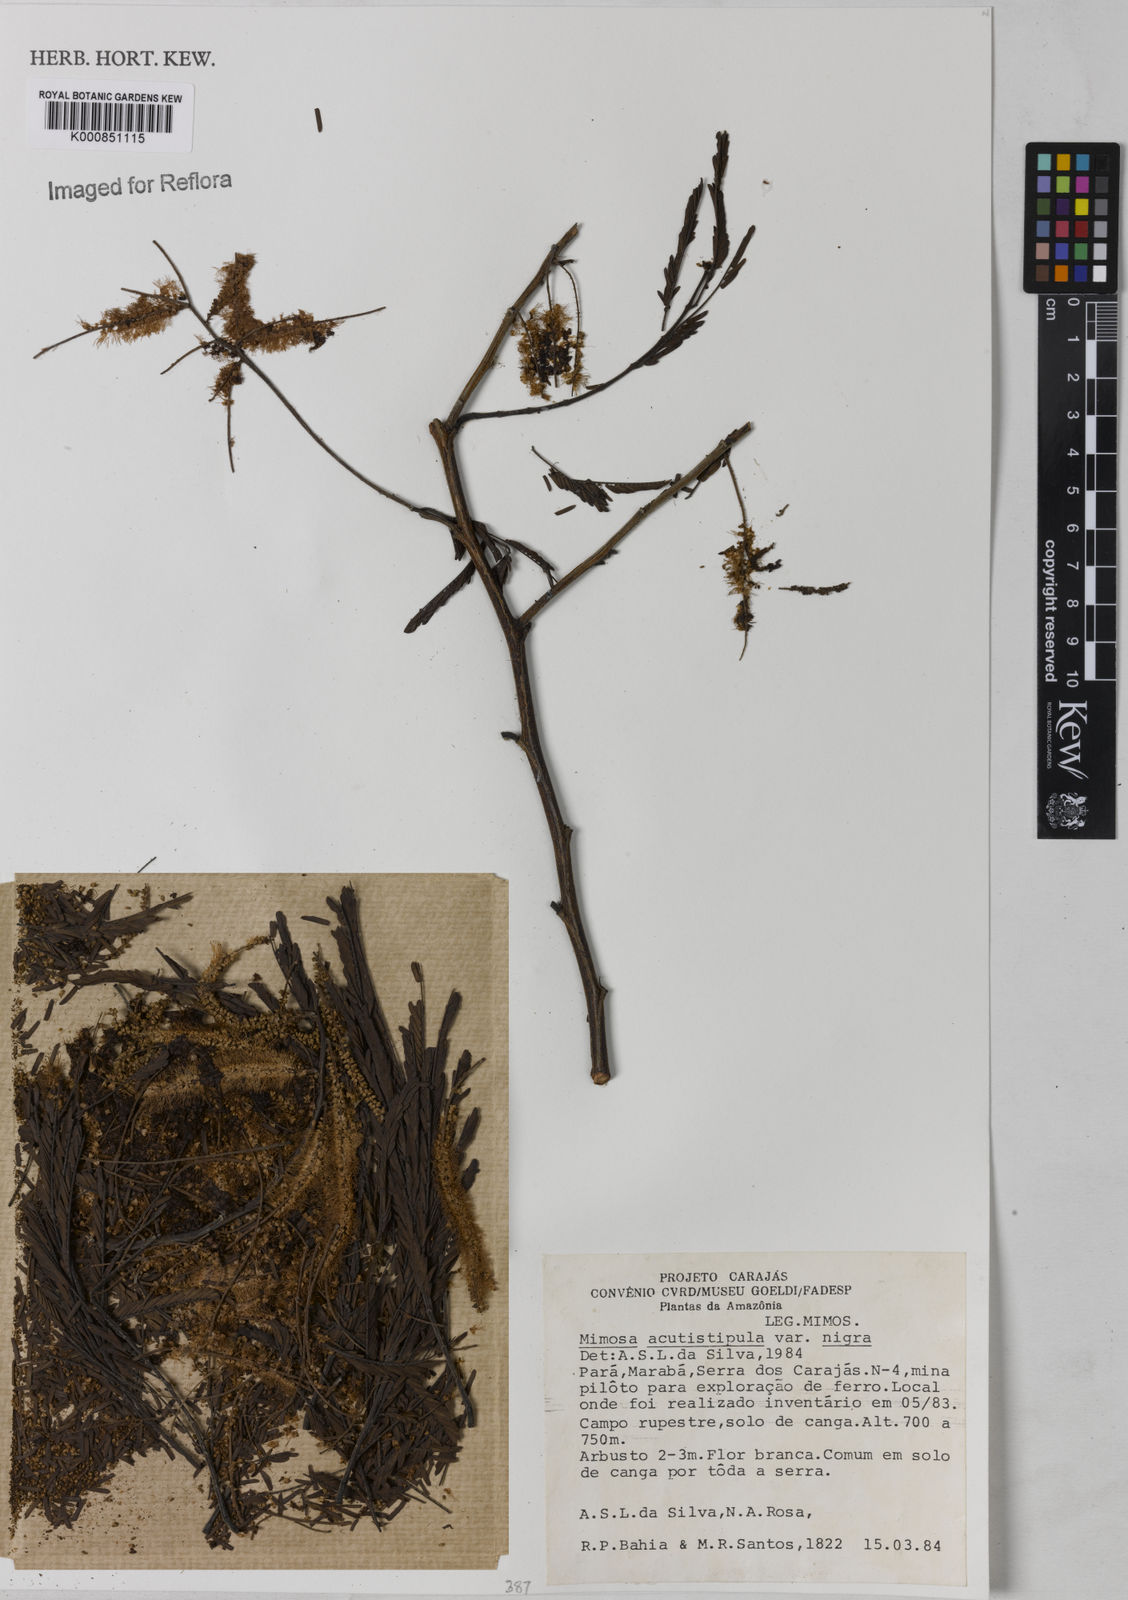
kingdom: Plantae
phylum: Tracheophyta
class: Magnoliopsida
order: Fabales
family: Fabaceae
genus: Mimosa
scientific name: Mimosa acutistipula
